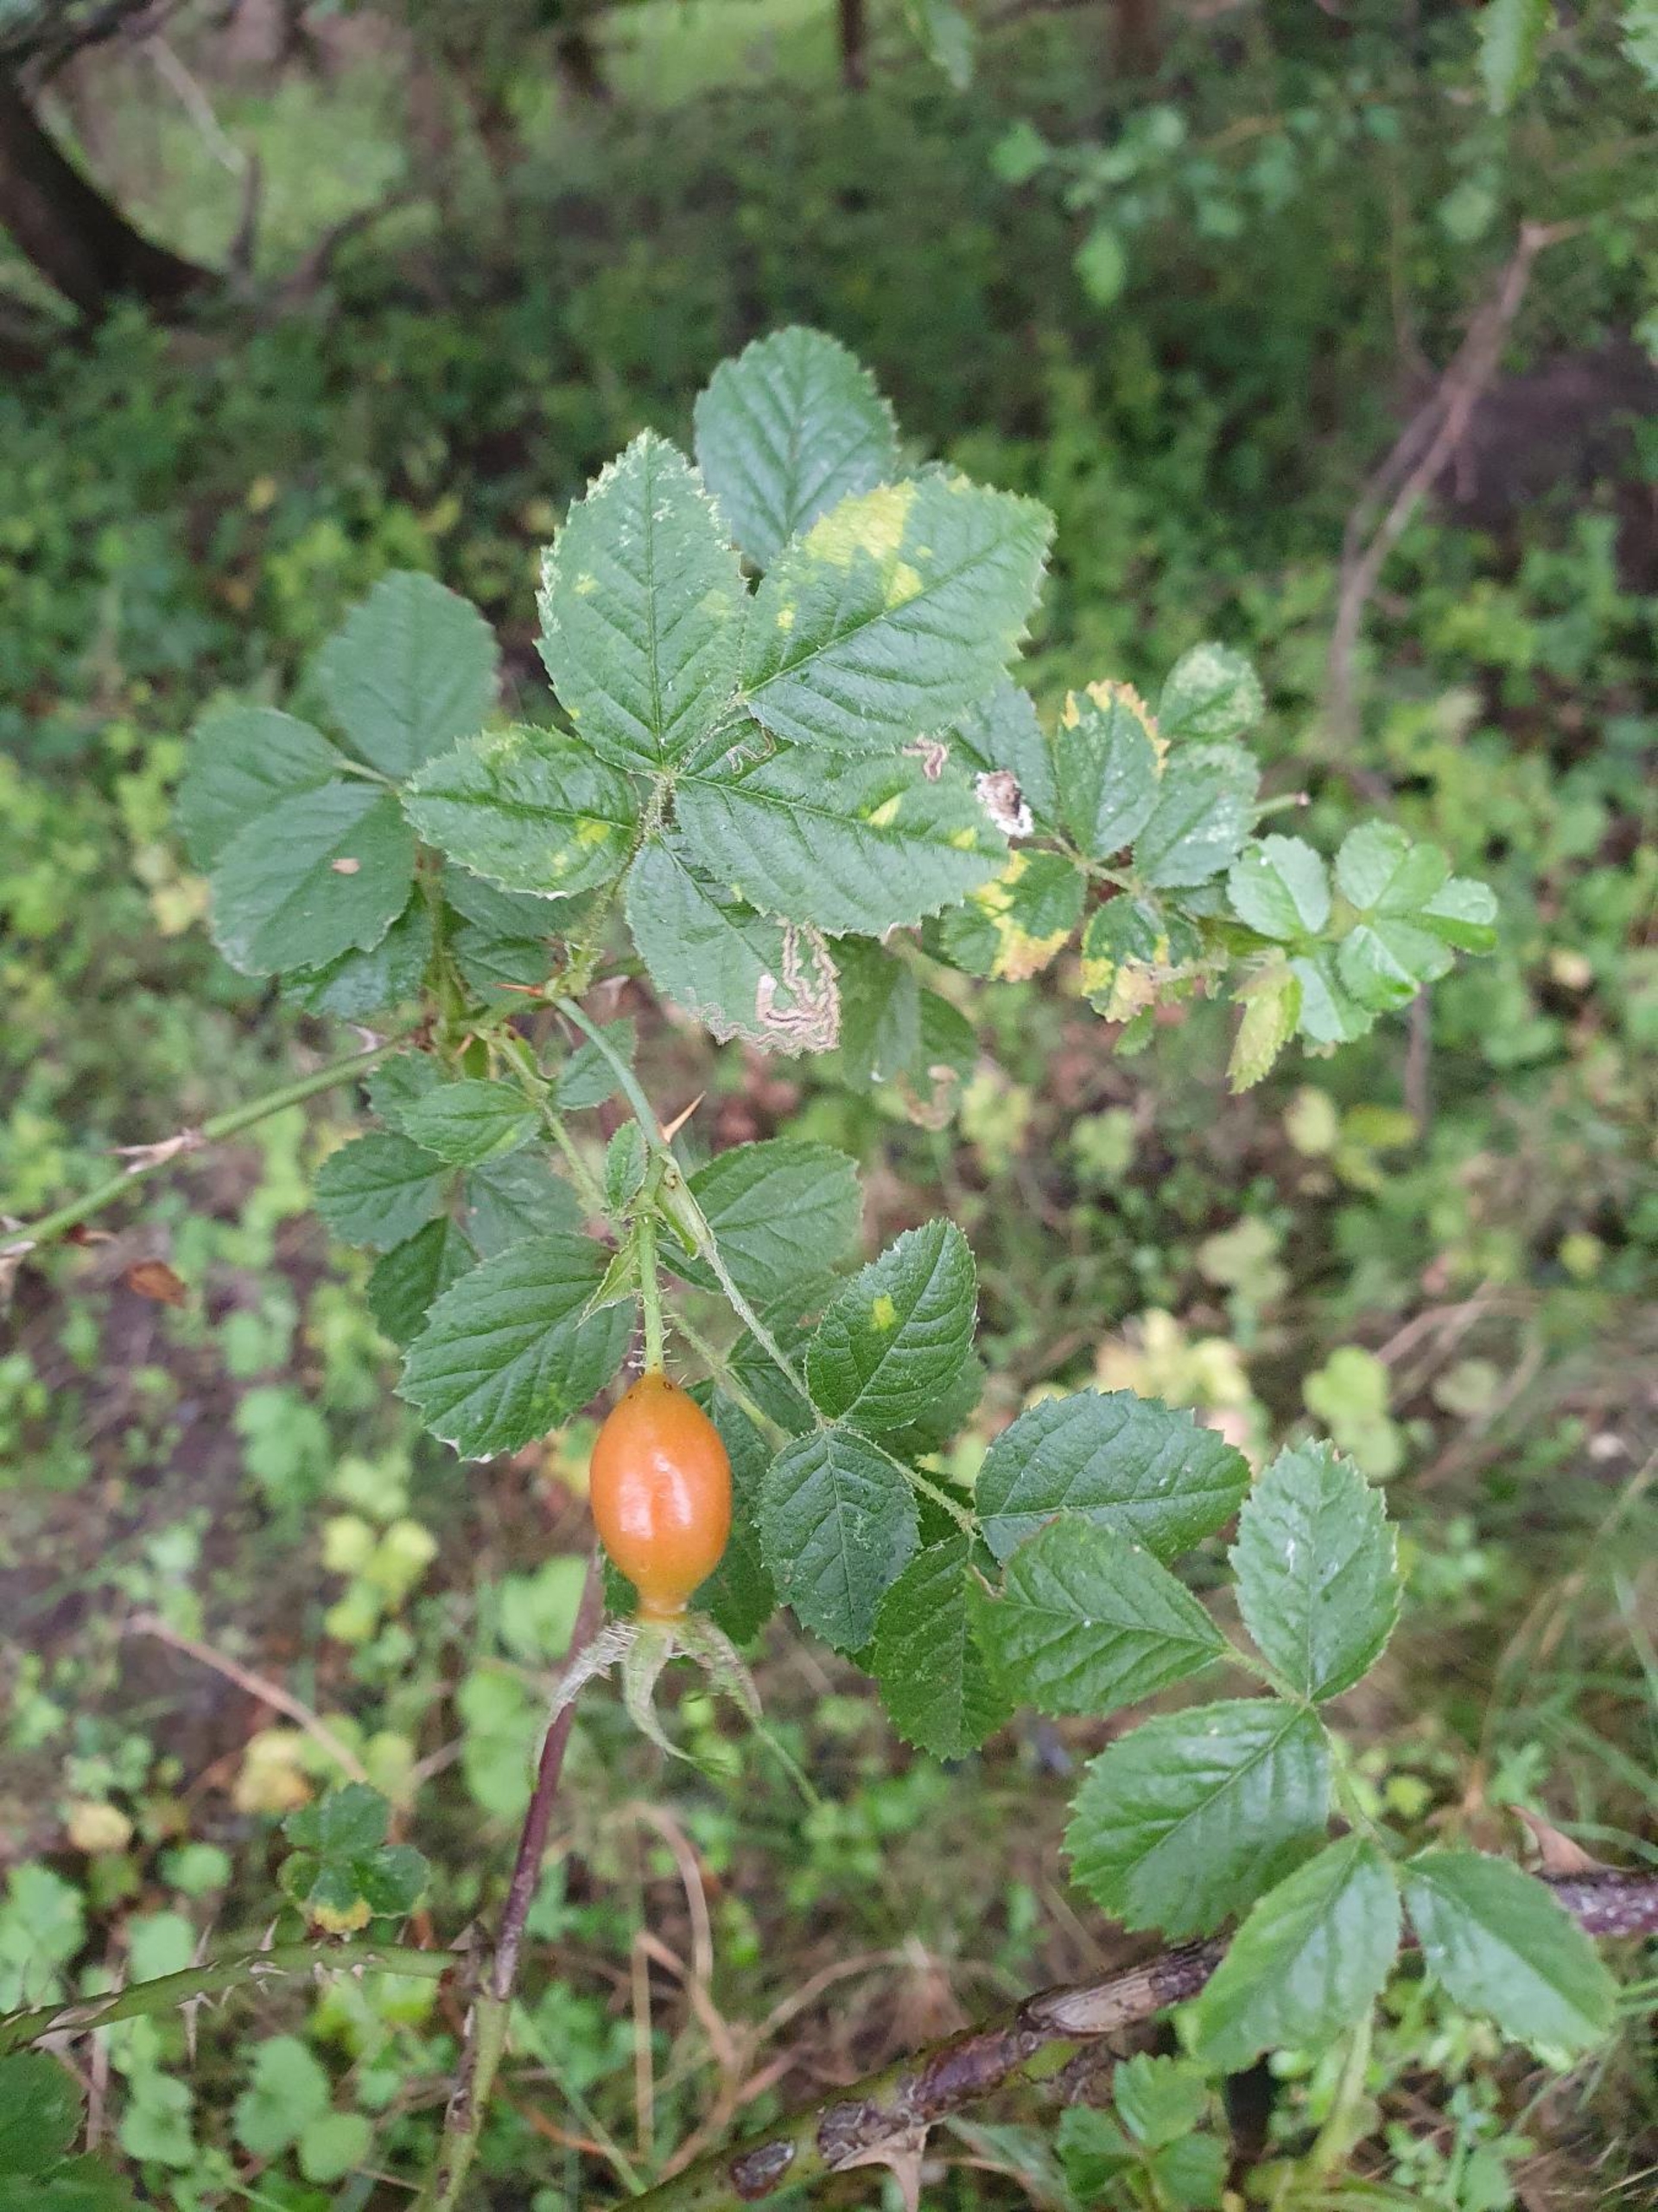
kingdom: Plantae
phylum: Tracheophyta
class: Magnoliopsida
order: Rosales
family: Rosaceae
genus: Rosa
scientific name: Rosa rubiginosa
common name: Æble-rose
